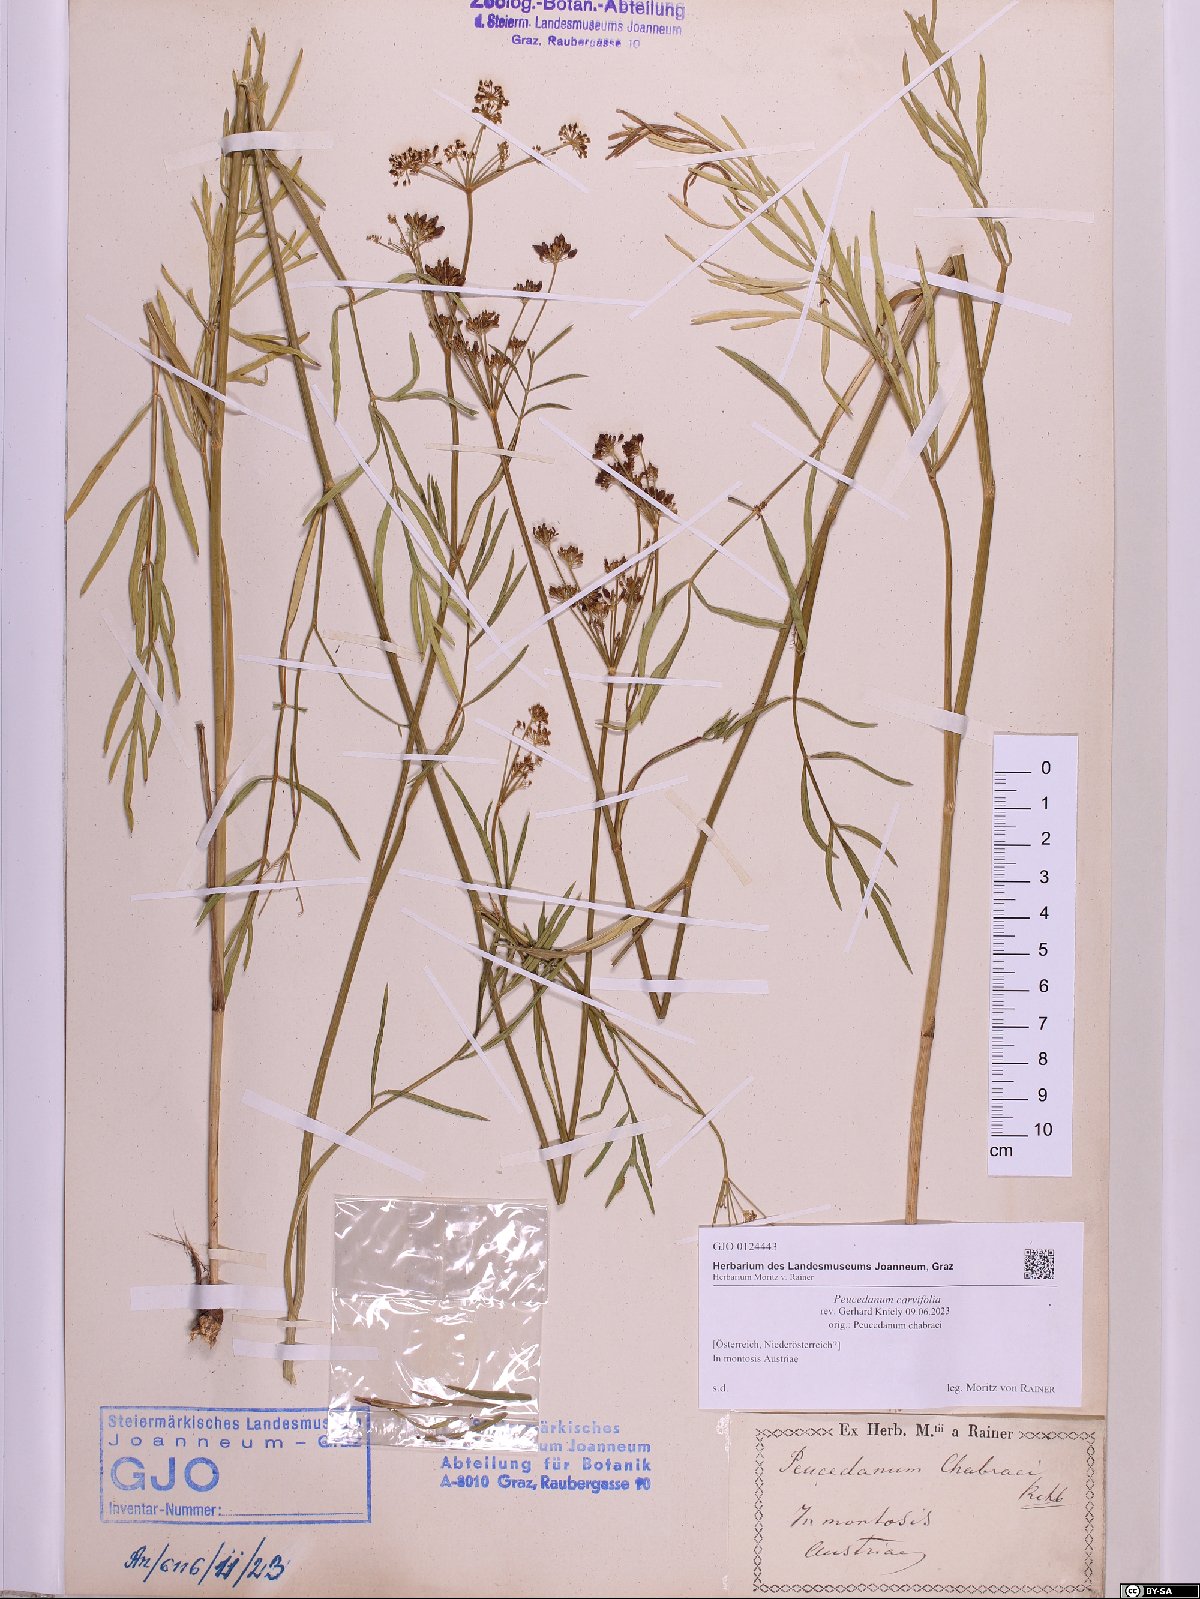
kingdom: Plantae
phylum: Tracheophyta
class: Magnoliopsida
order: Apiales
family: Apiaceae
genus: Dichoropetalum
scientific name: Dichoropetalum carvifolia
